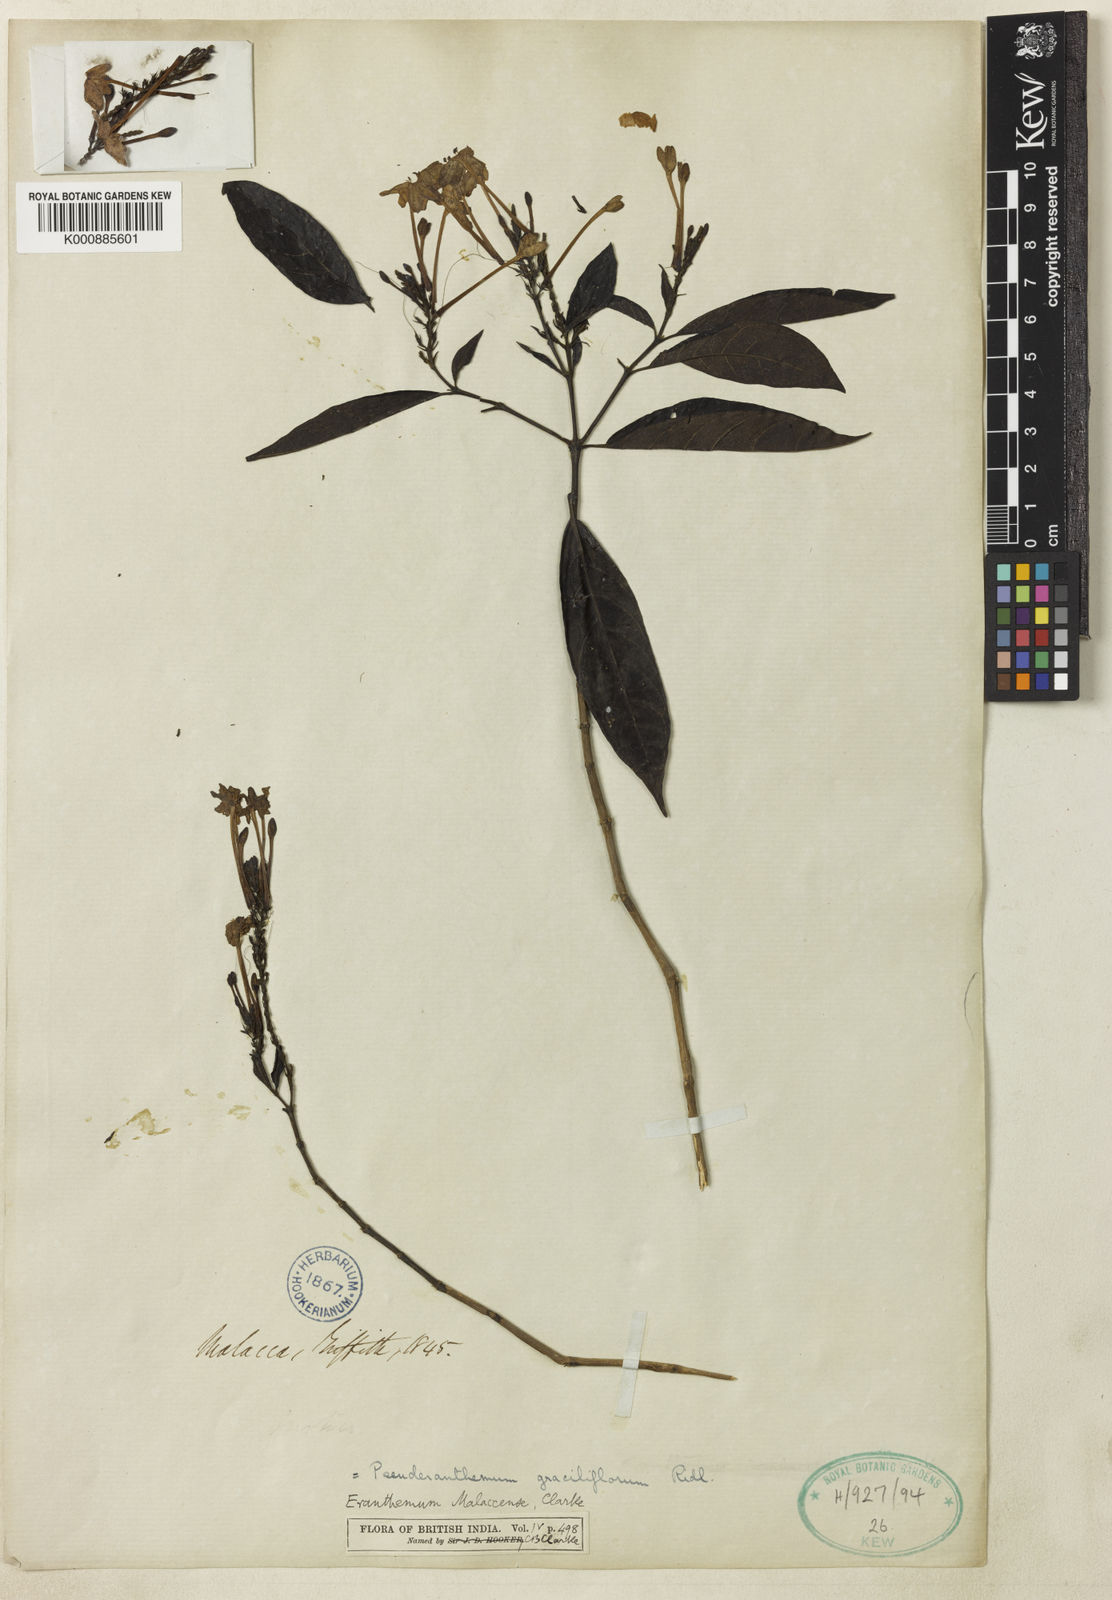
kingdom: Plantae
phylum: Tracheophyta
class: Magnoliopsida
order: Lamiales
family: Acanthaceae
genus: Pseuderanthemum
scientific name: Pseuderanthemum graciliflorum
